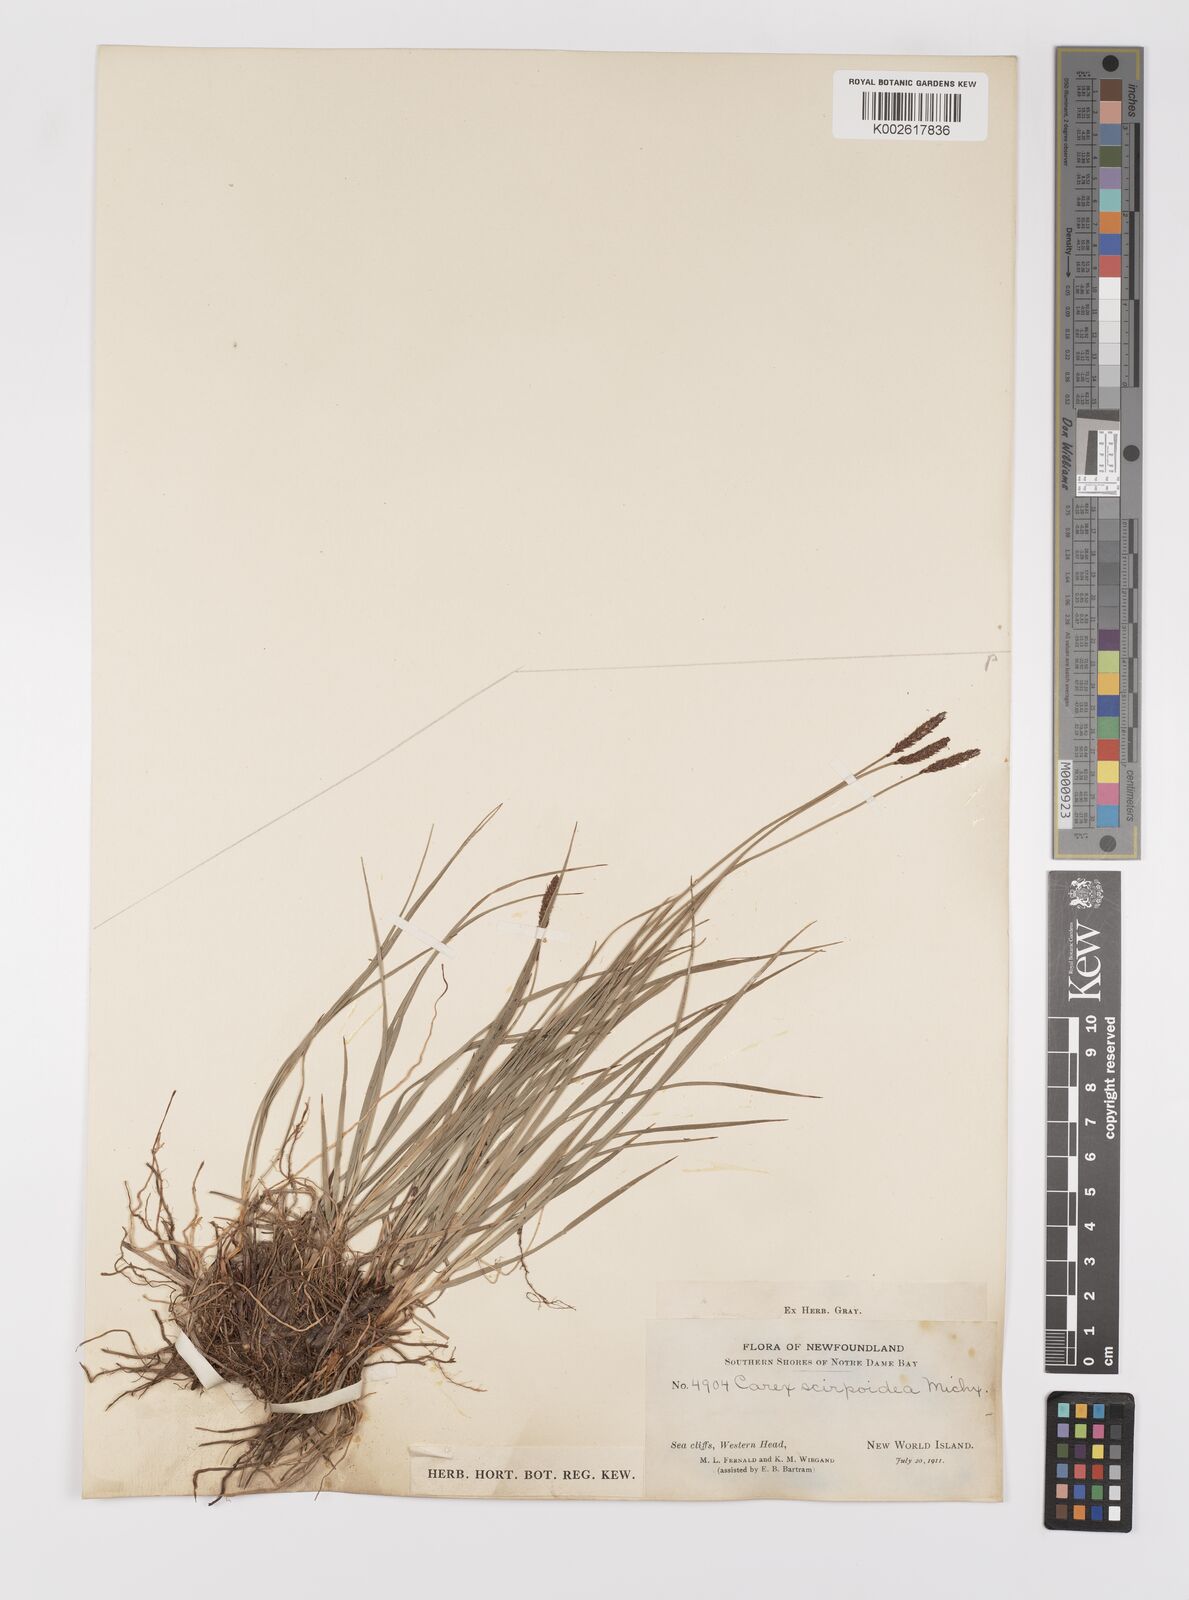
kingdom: Plantae
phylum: Tracheophyta
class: Liliopsida
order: Poales
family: Cyperaceae
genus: Carex
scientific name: Carex scirpoidea
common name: Canada single-spike sedge
